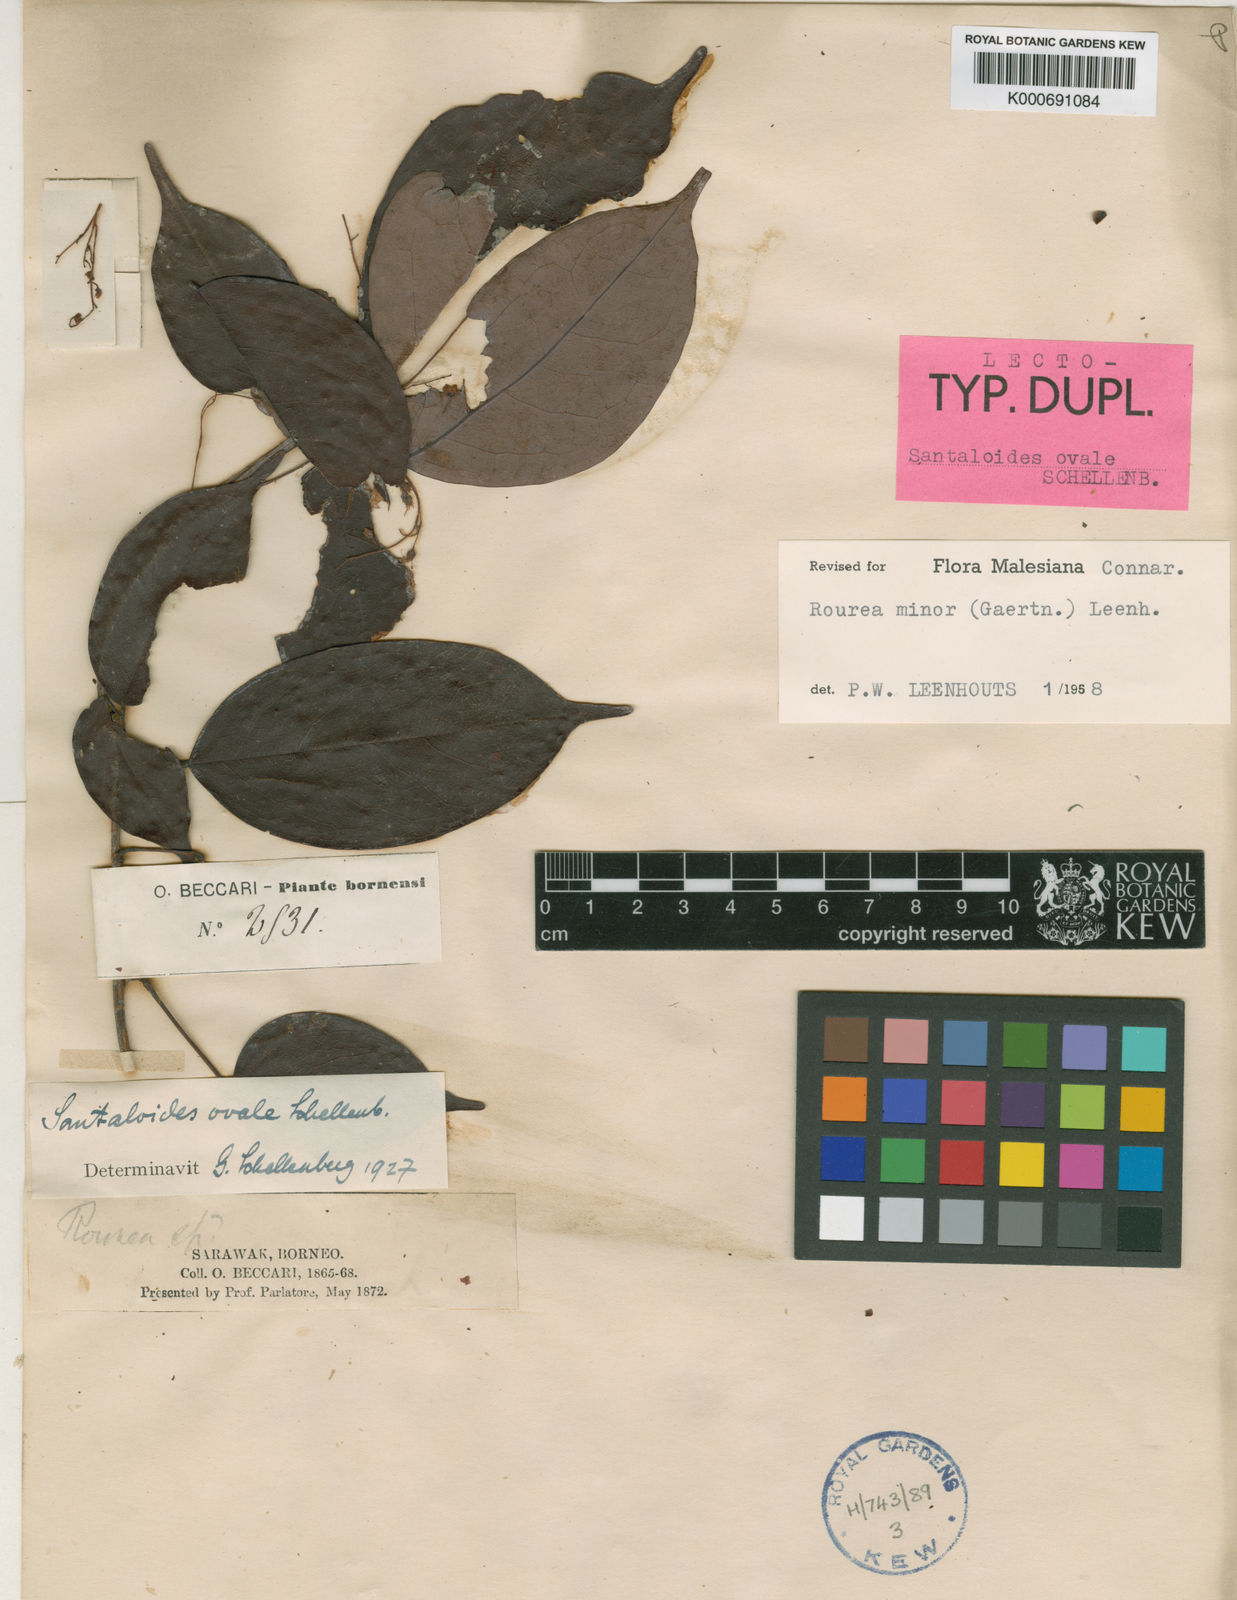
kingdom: Plantae
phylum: Tracheophyta
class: Magnoliopsida
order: Oxalidales
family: Connaraceae
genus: Rourea
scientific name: Rourea
